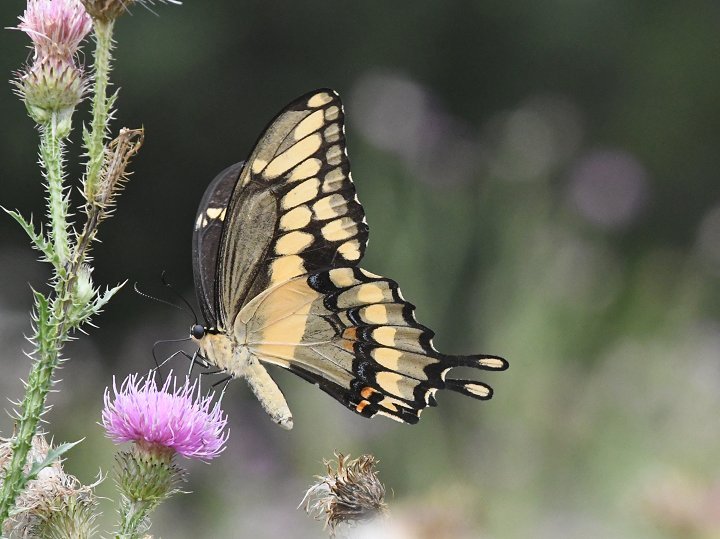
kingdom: Animalia
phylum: Arthropoda
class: Insecta
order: Lepidoptera
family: Papilionidae
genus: Papilio
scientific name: Papilio cresphontes
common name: Eastern Giant Swallowtail
